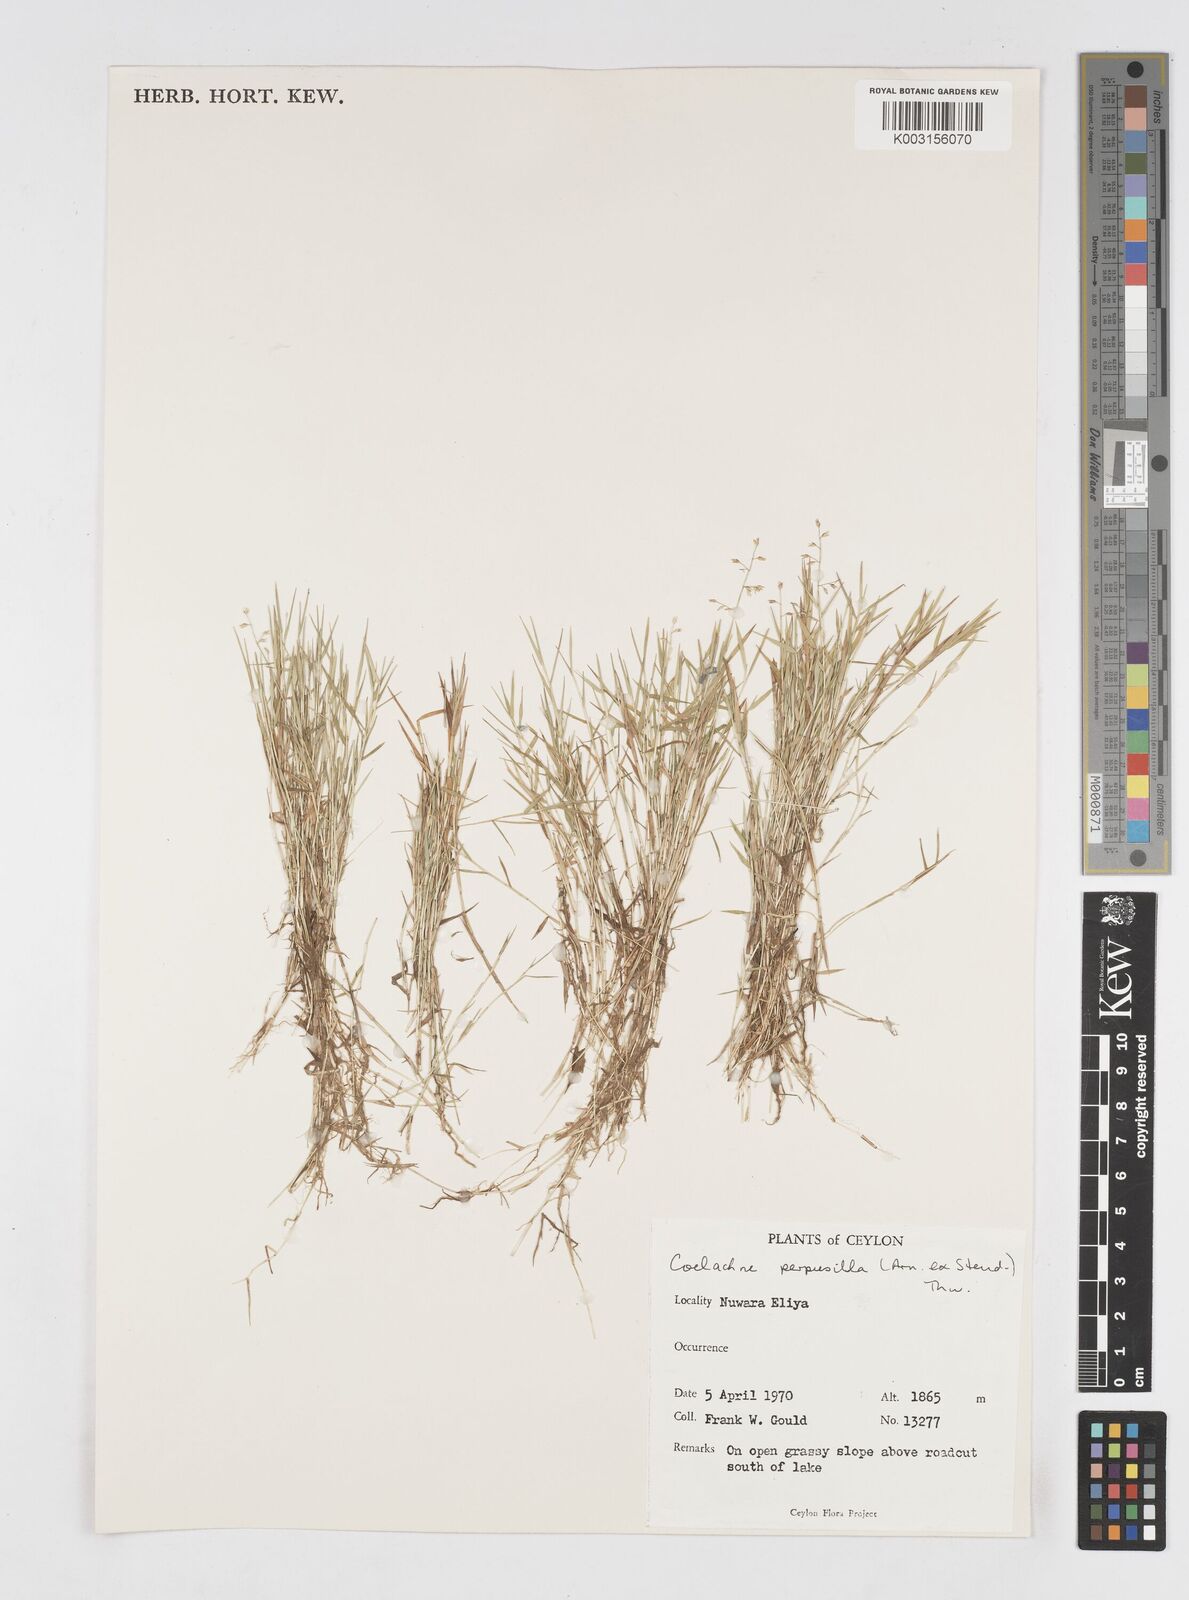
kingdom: Plantae
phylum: Tracheophyta
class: Liliopsida
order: Poales
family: Poaceae
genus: Coelachne
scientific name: Coelachne perpusilla
